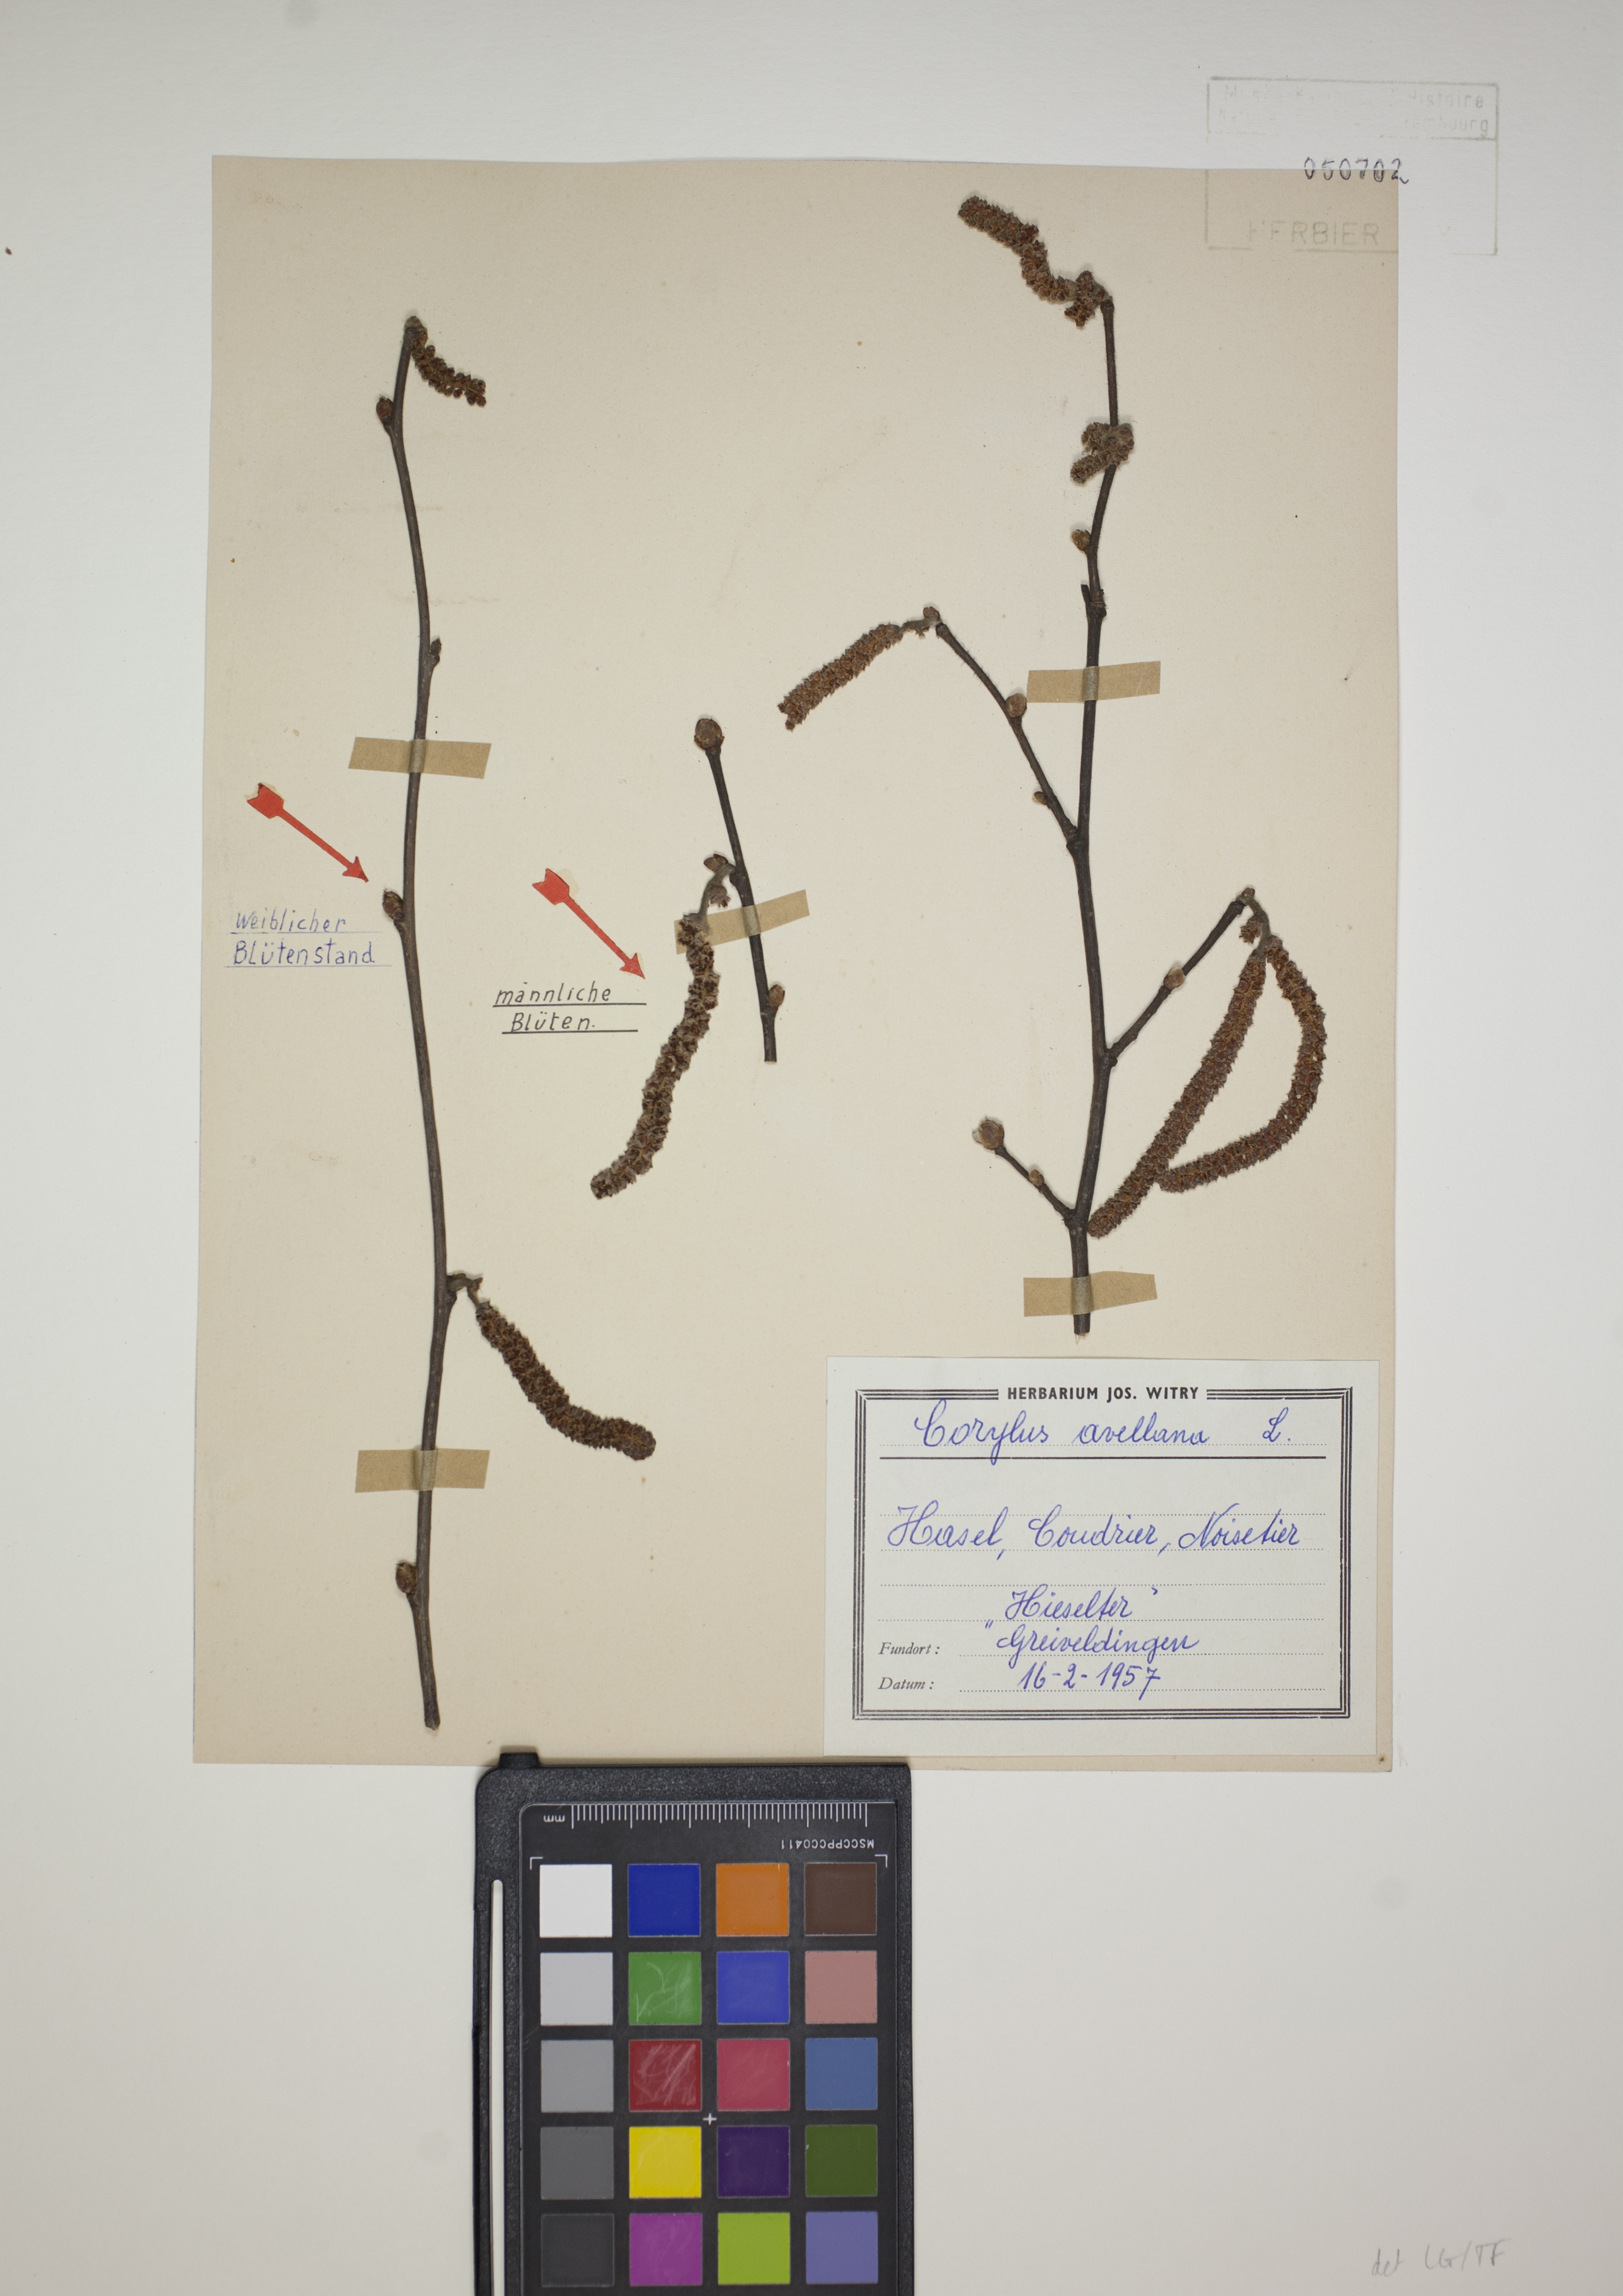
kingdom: Plantae
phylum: Tracheophyta
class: Magnoliopsida
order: Fagales
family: Betulaceae
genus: Corylus
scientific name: Corylus avellana
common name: European hazel
